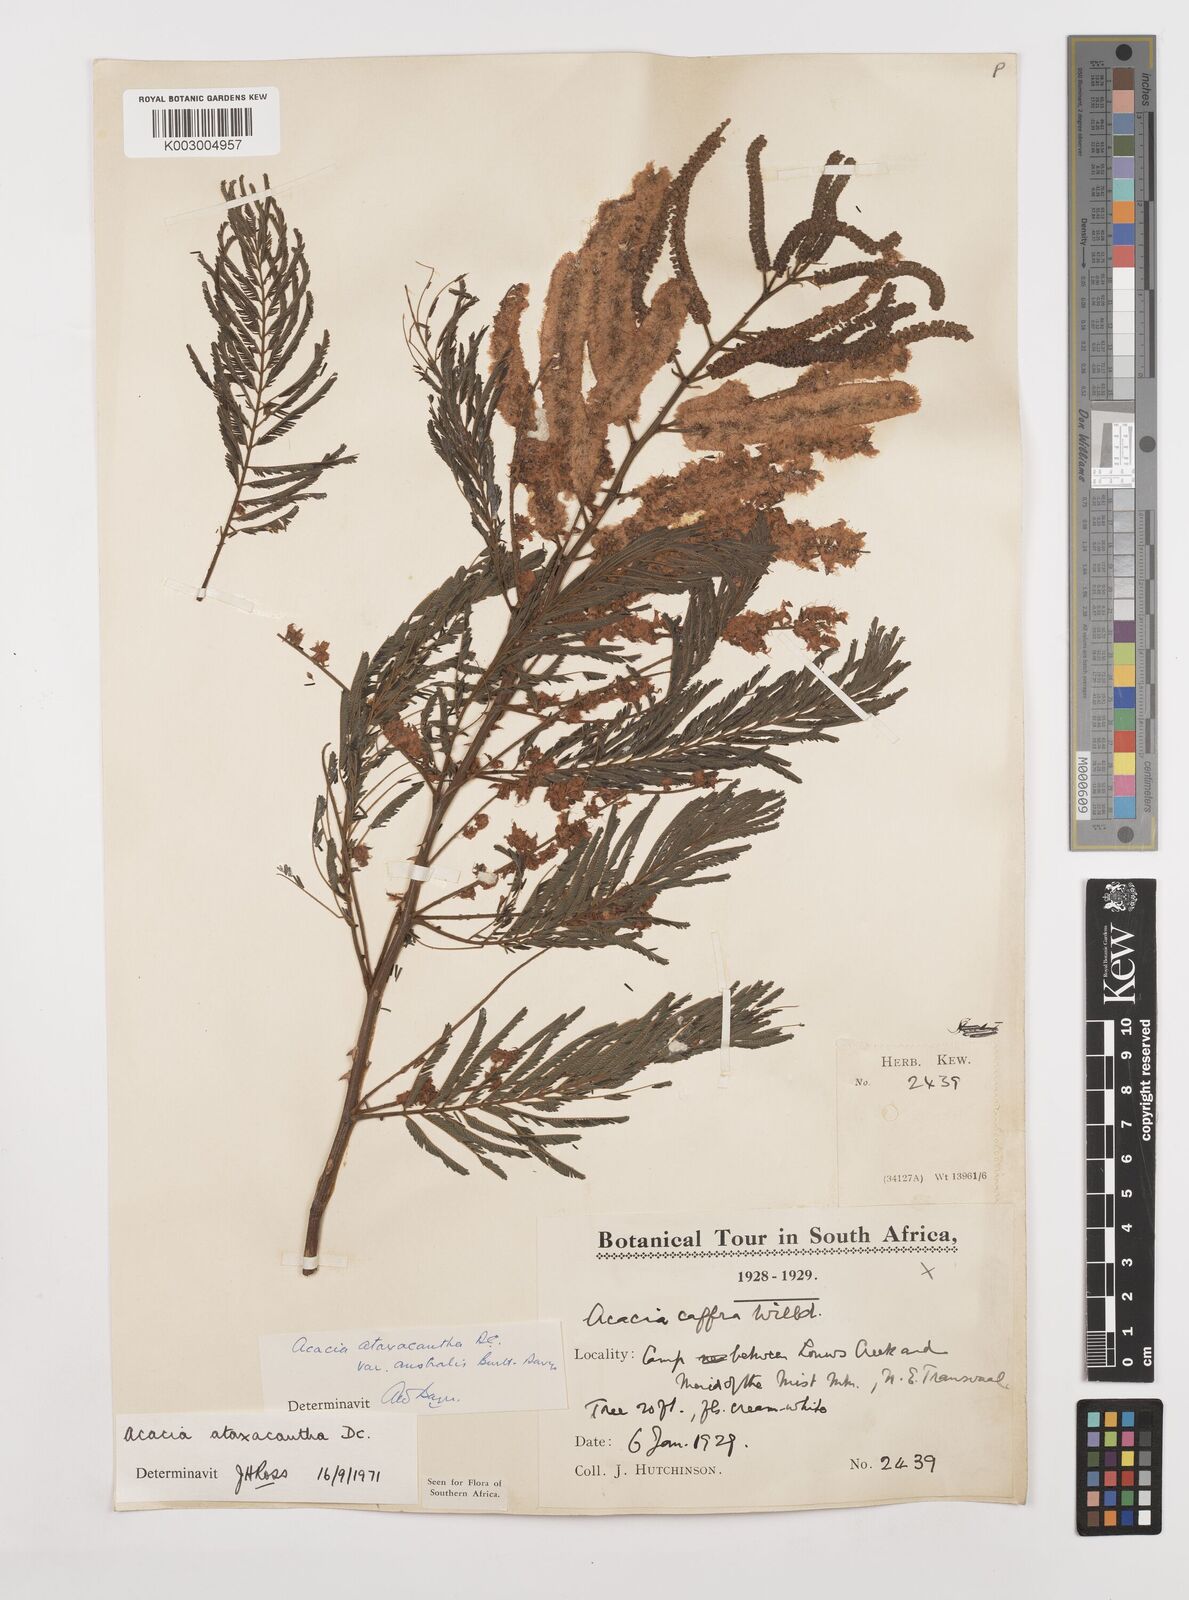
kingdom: Plantae
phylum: Tracheophyta
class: Magnoliopsida
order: Fabales
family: Fabaceae
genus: Senegalia
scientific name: Senegalia ataxacantha
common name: Flame acacia
